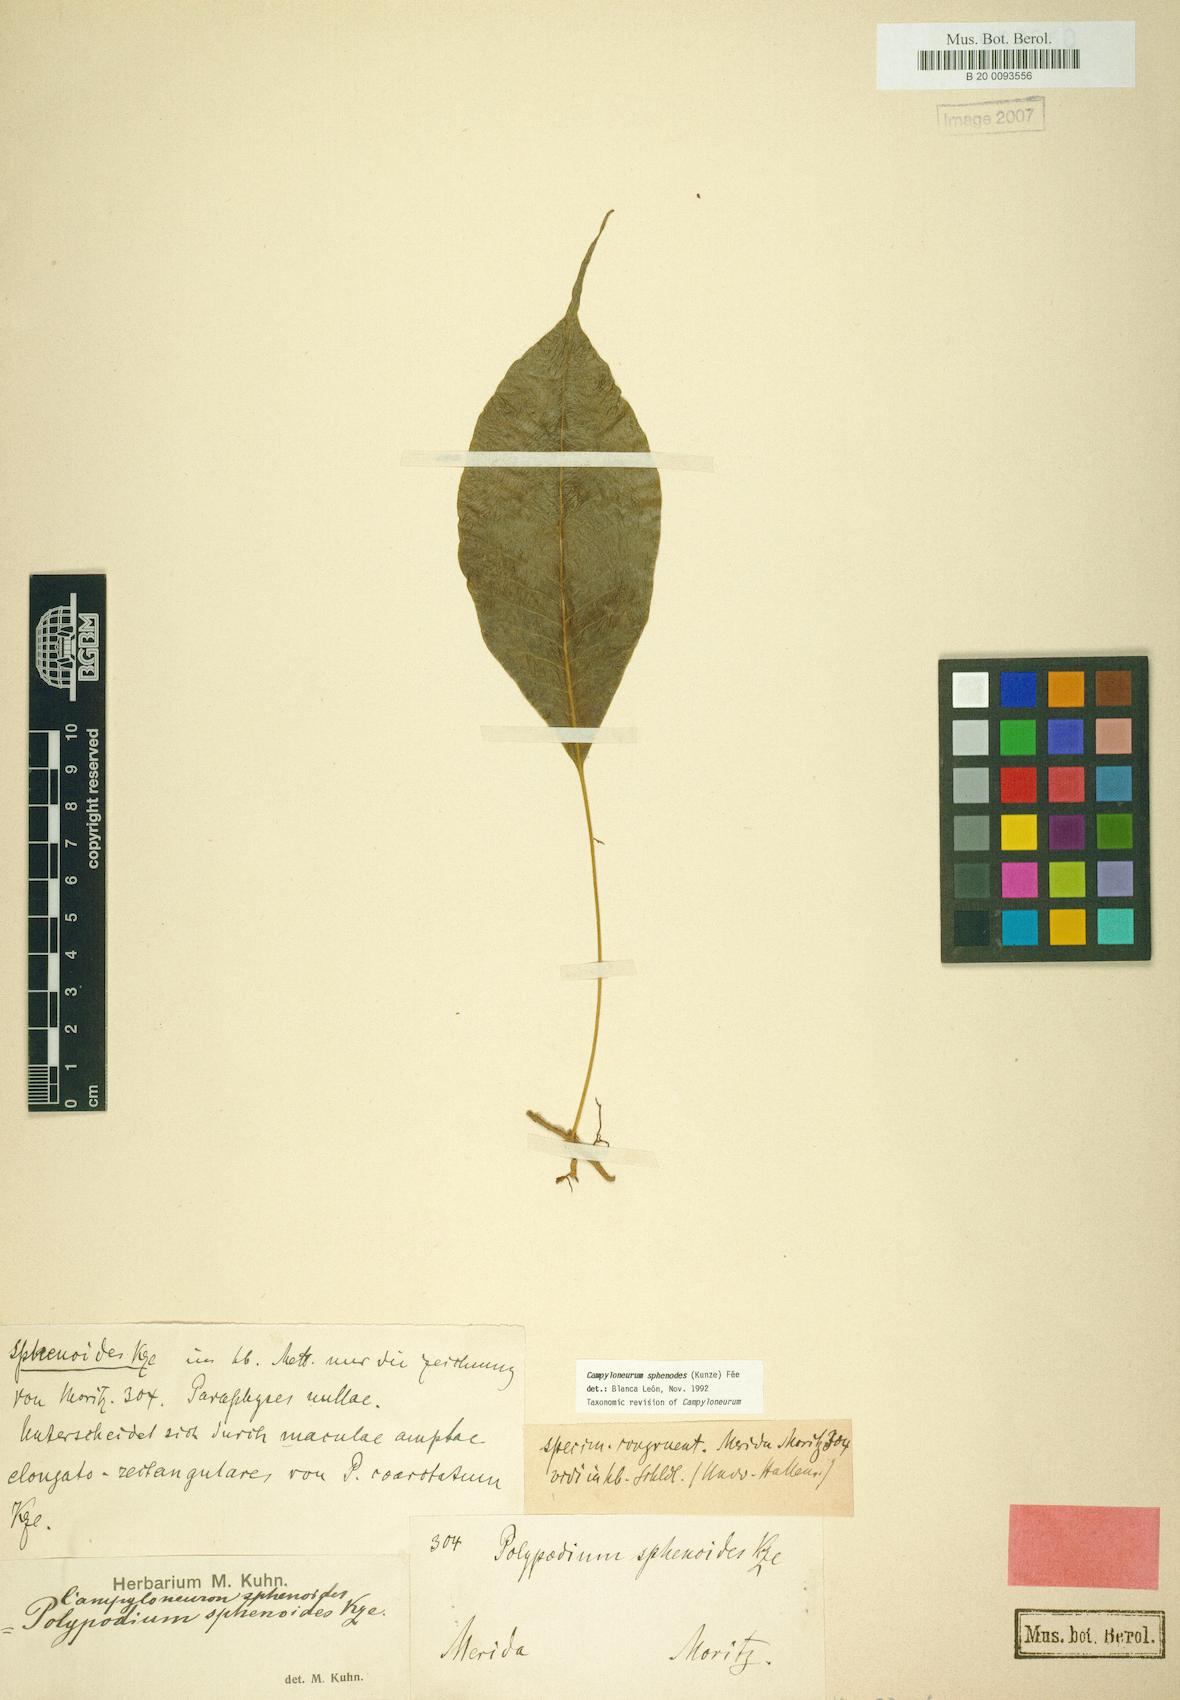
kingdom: Plantae
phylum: Tracheophyta
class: Polypodiopsida
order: Polypodiales
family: Polypodiaceae
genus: Campyloneurum
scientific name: Campyloneurum sphenodes
